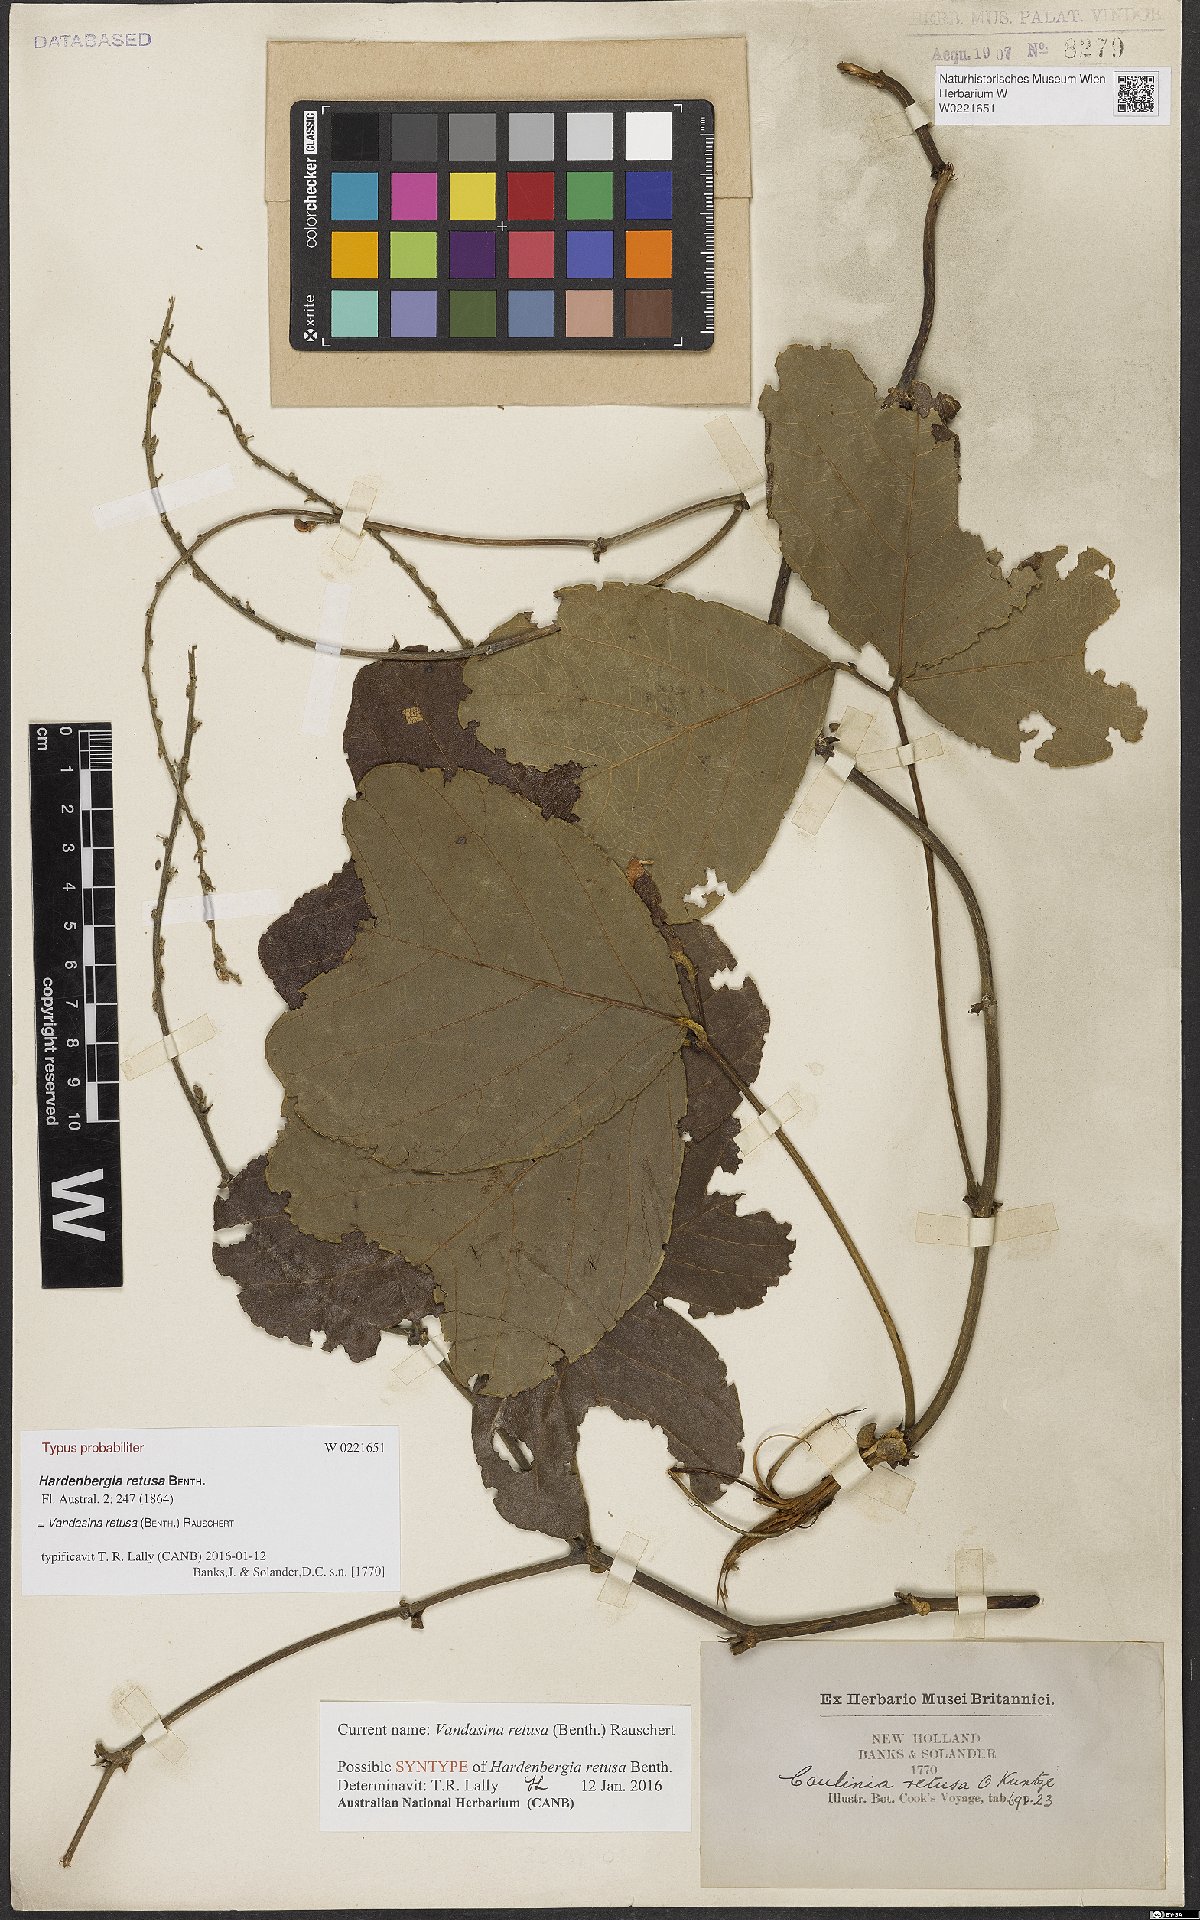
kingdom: Plantae
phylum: Tracheophyta
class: Magnoliopsida
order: Fabales
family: Fabaceae
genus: Vandasina
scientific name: Vandasina retusa
